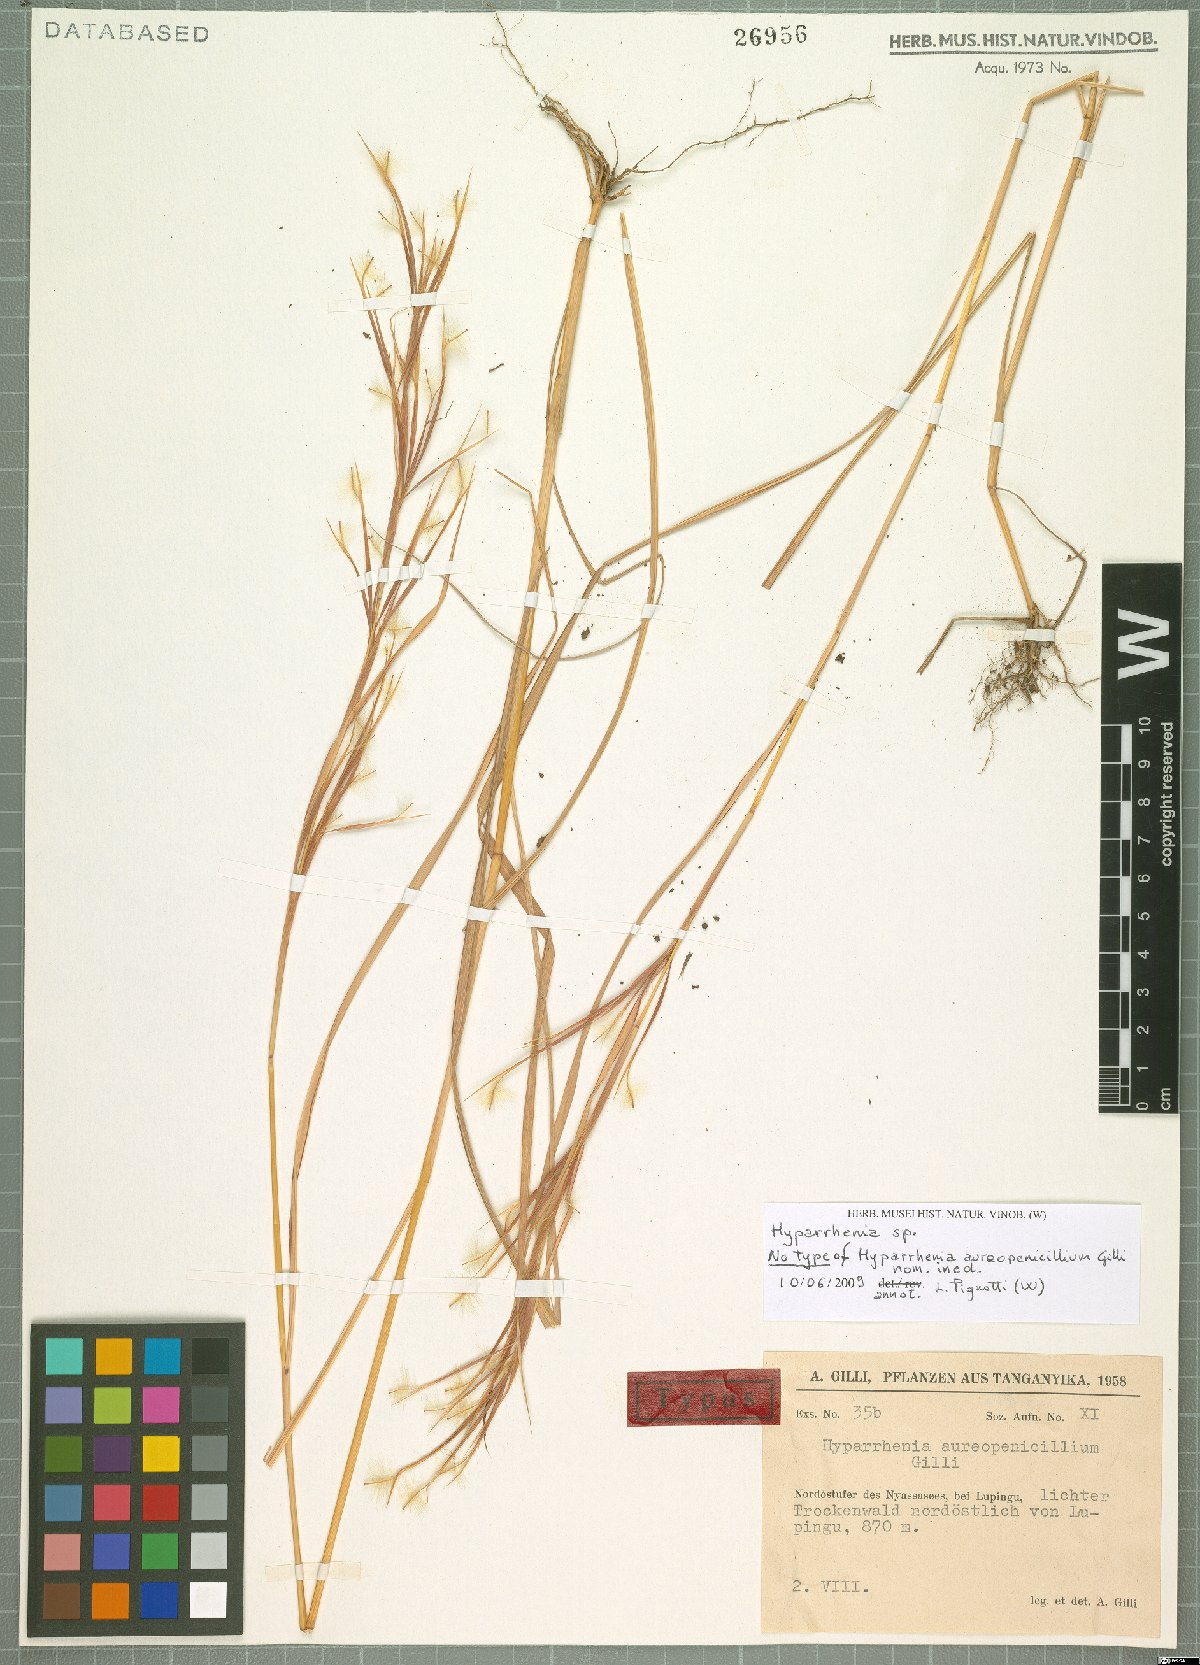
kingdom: Plantae
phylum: Tracheophyta
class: Liliopsida
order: Poales
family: Poaceae
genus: Hyparrhenia
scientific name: Hyparrhenia
